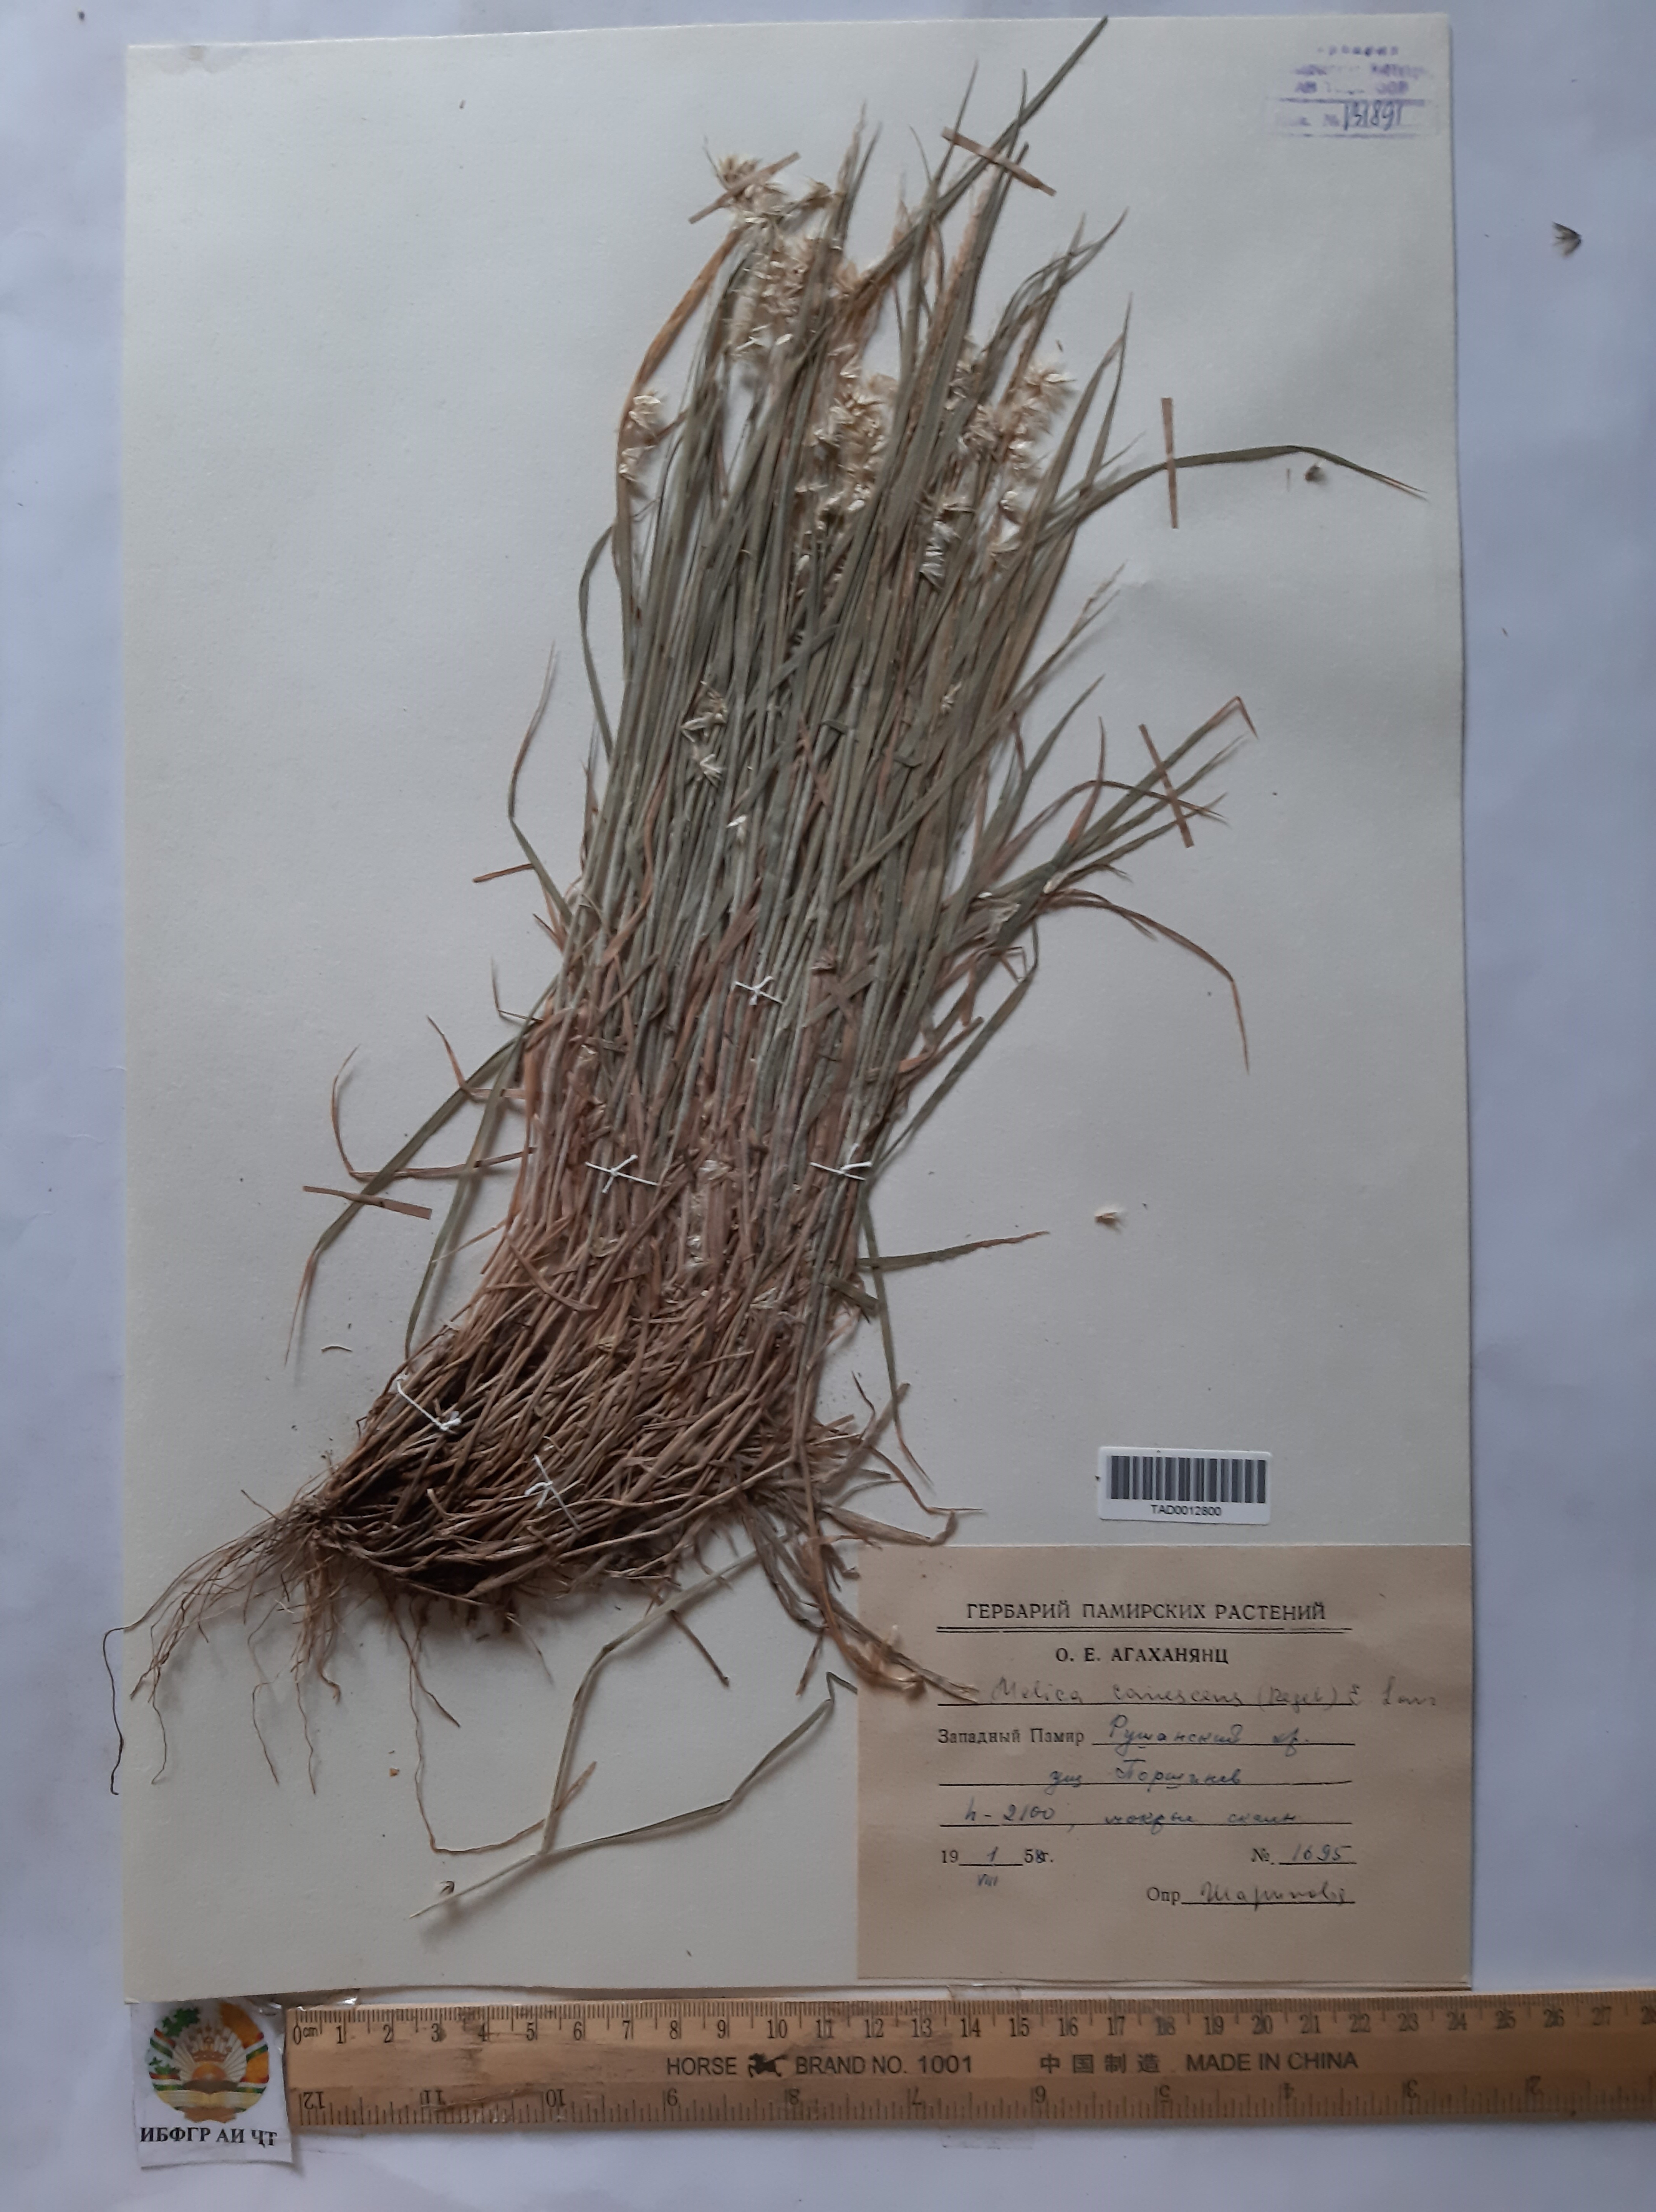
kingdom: Plantae
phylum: Tracheophyta
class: Liliopsida
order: Poales
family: Poaceae
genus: Melica
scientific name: Melica persica
